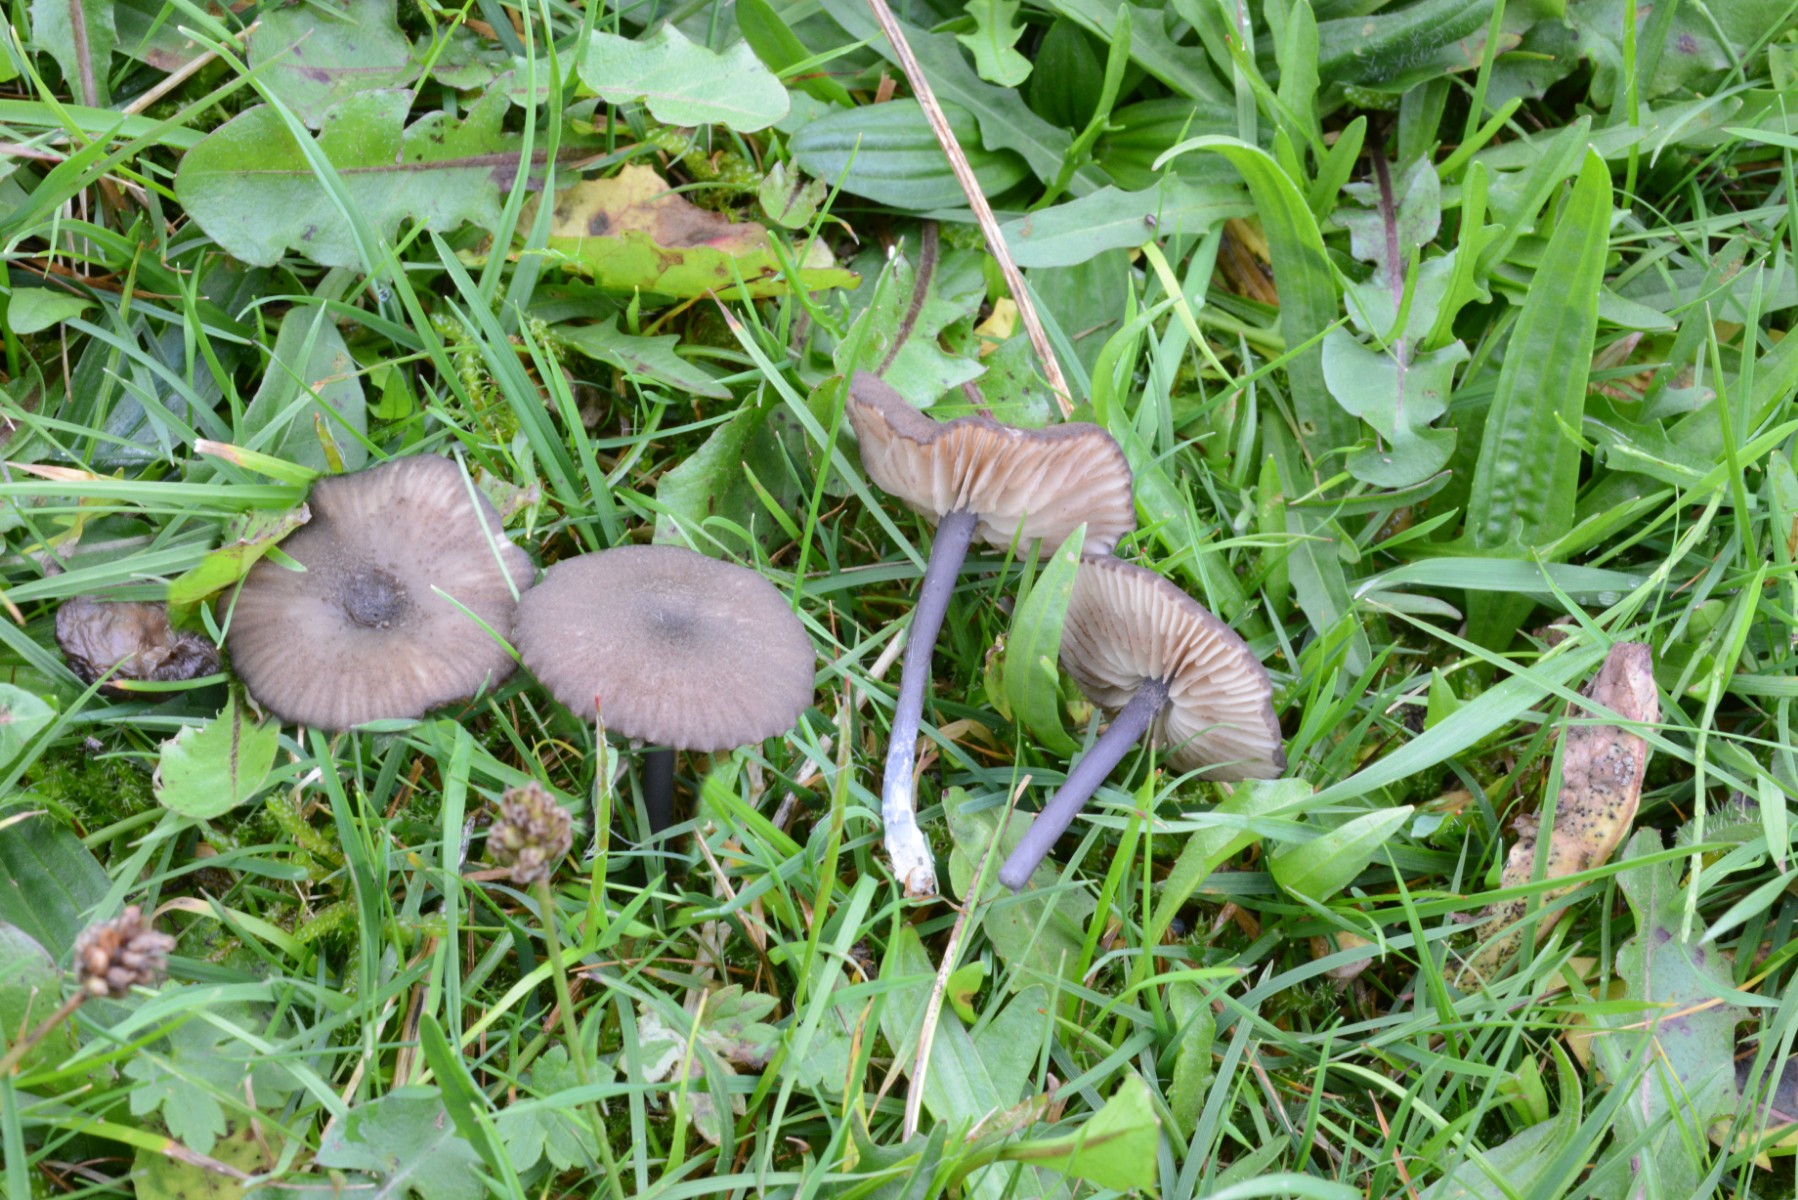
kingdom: Fungi
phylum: Basidiomycota
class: Agaricomycetes
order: Agaricales
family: Entolomataceae
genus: Entoloma
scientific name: Entoloma
